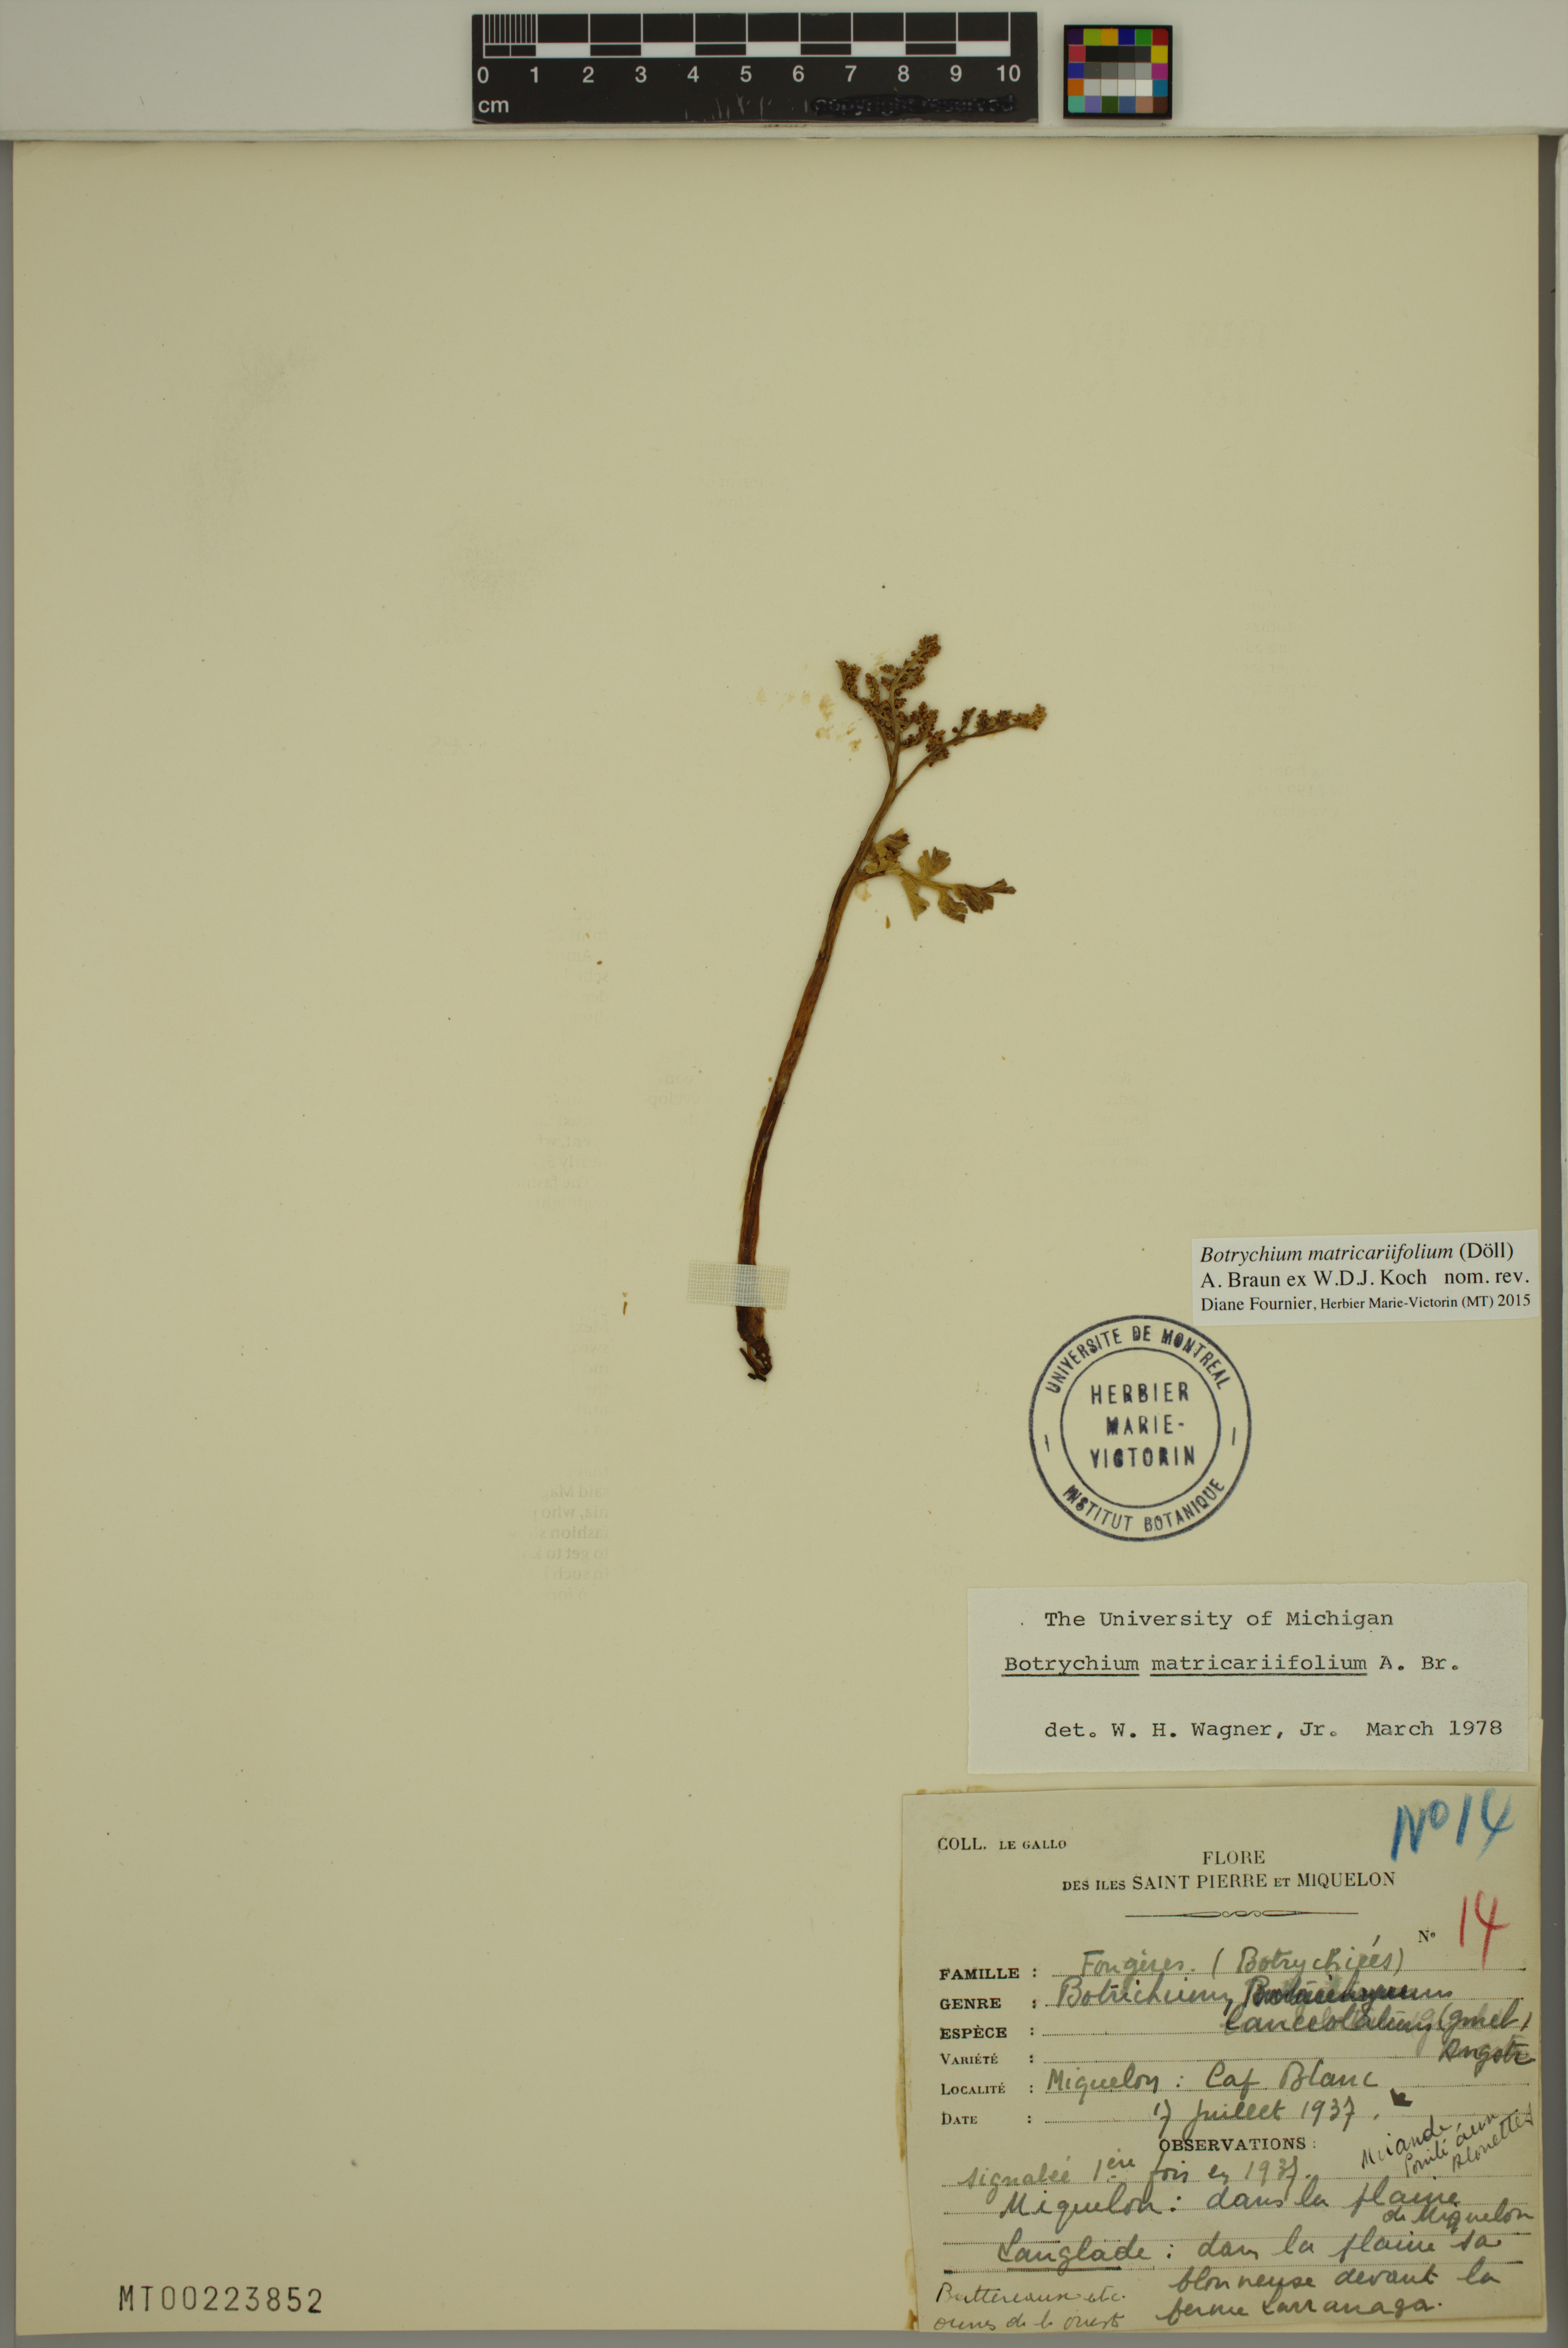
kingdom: Plantae
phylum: Tracheophyta
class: Polypodiopsida
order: Ophioglossales
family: Ophioglossaceae
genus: Botrychium
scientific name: Botrychium matricariifolium
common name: Branched moonwort
